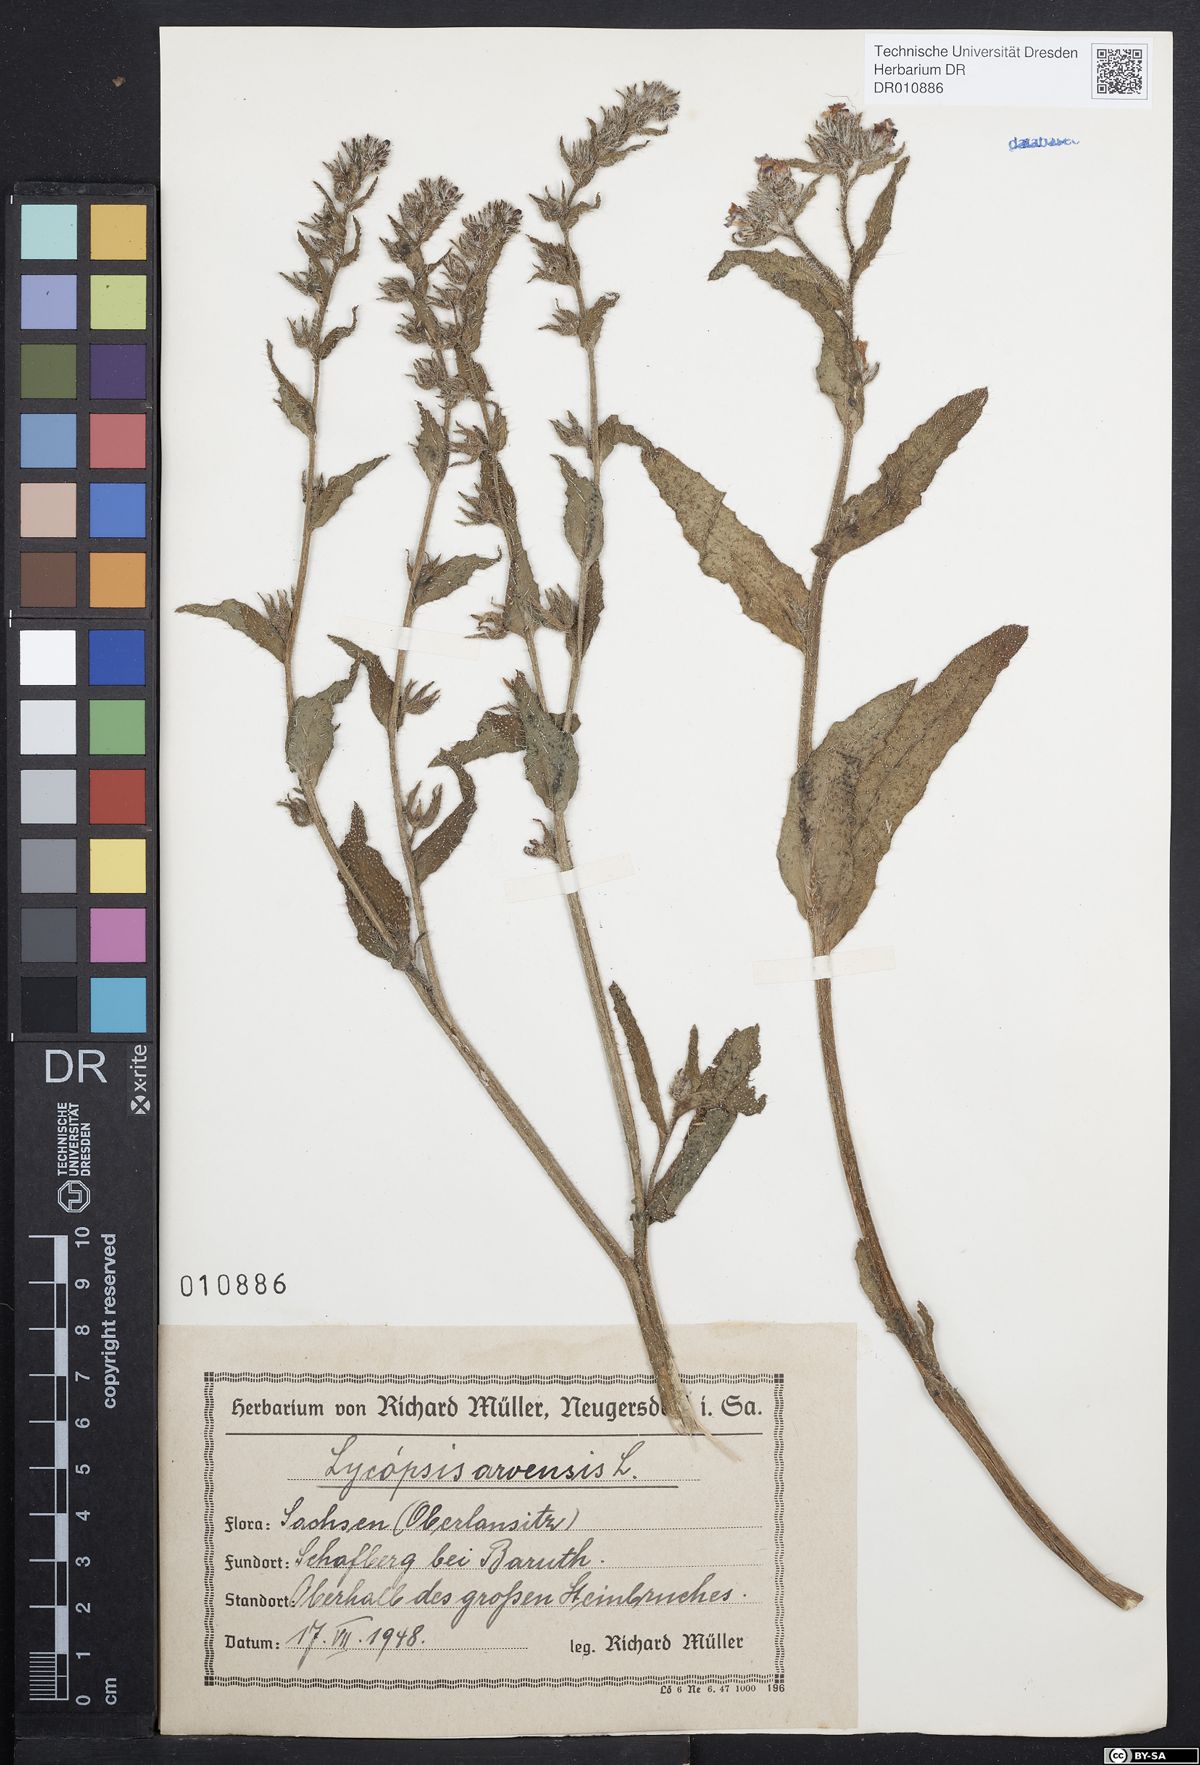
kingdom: Plantae
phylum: Tracheophyta
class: Magnoliopsida
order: Boraginales
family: Boraginaceae
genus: Lycopsis
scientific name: Lycopsis arvensis
